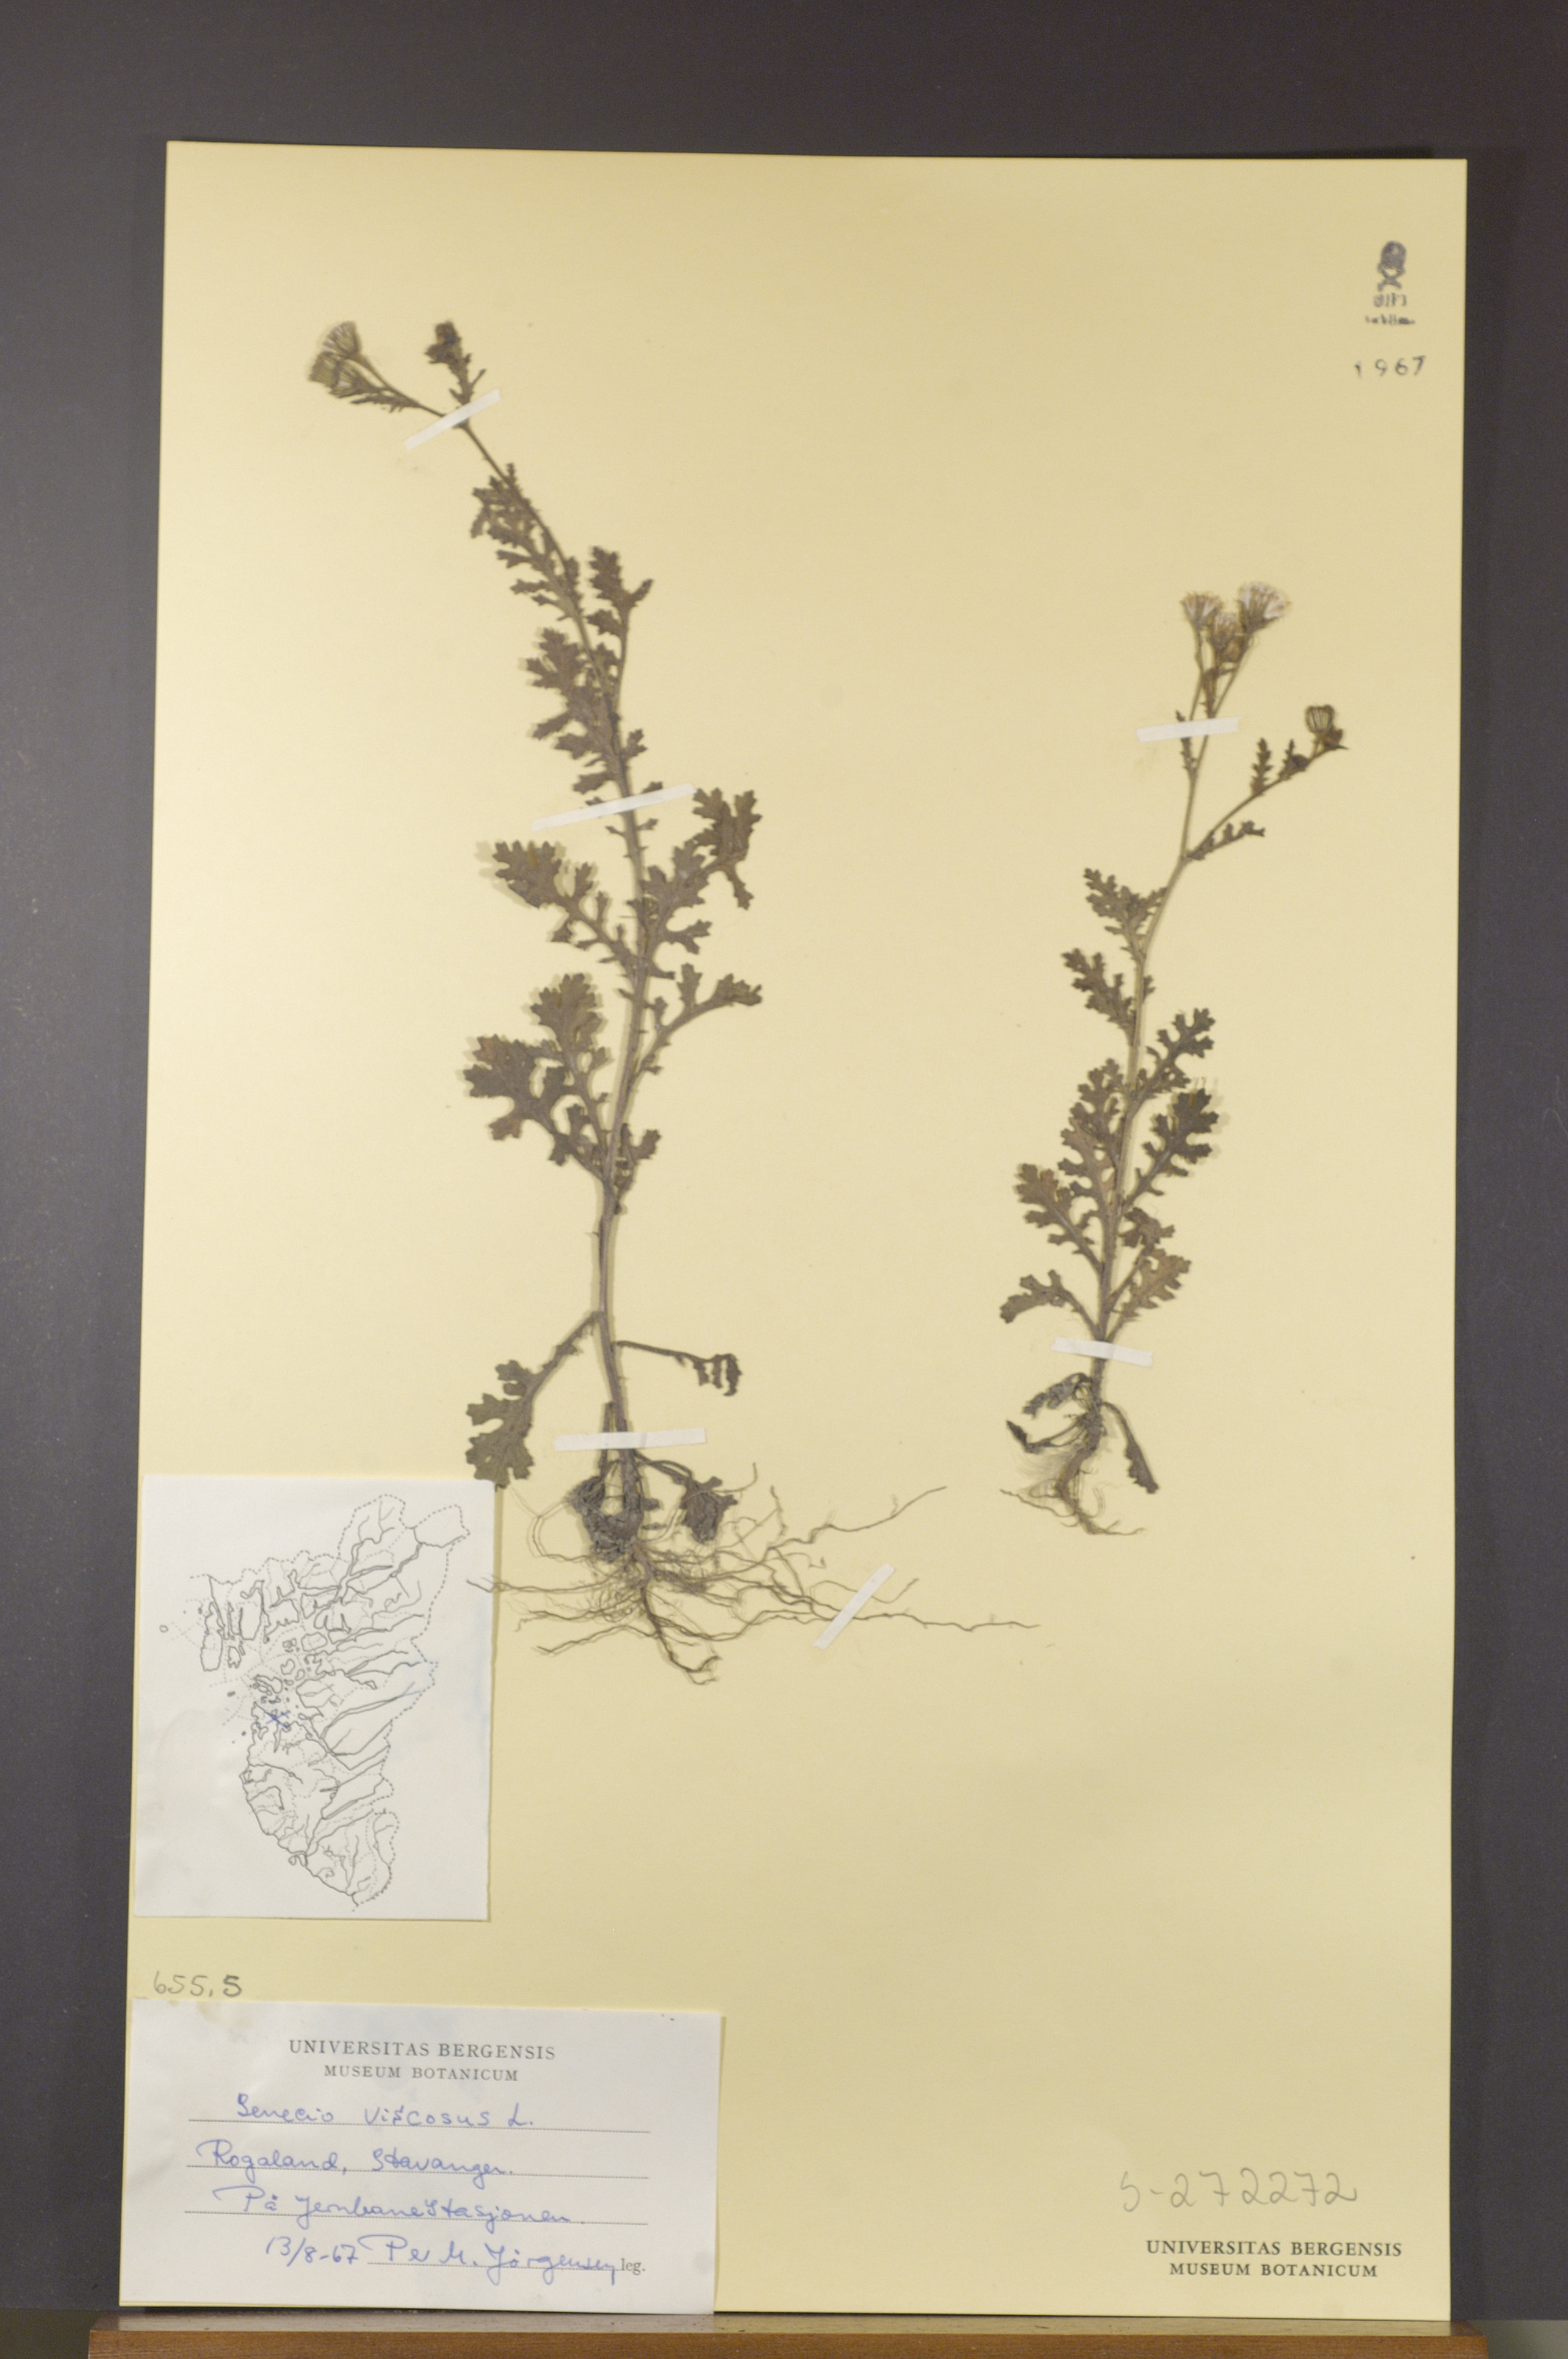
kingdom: Plantae
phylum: Tracheophyta
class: Magnoliopsida
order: Asterales
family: Asteraceae
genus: Senecio
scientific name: Senecio viscosus
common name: Sticky groundsel
